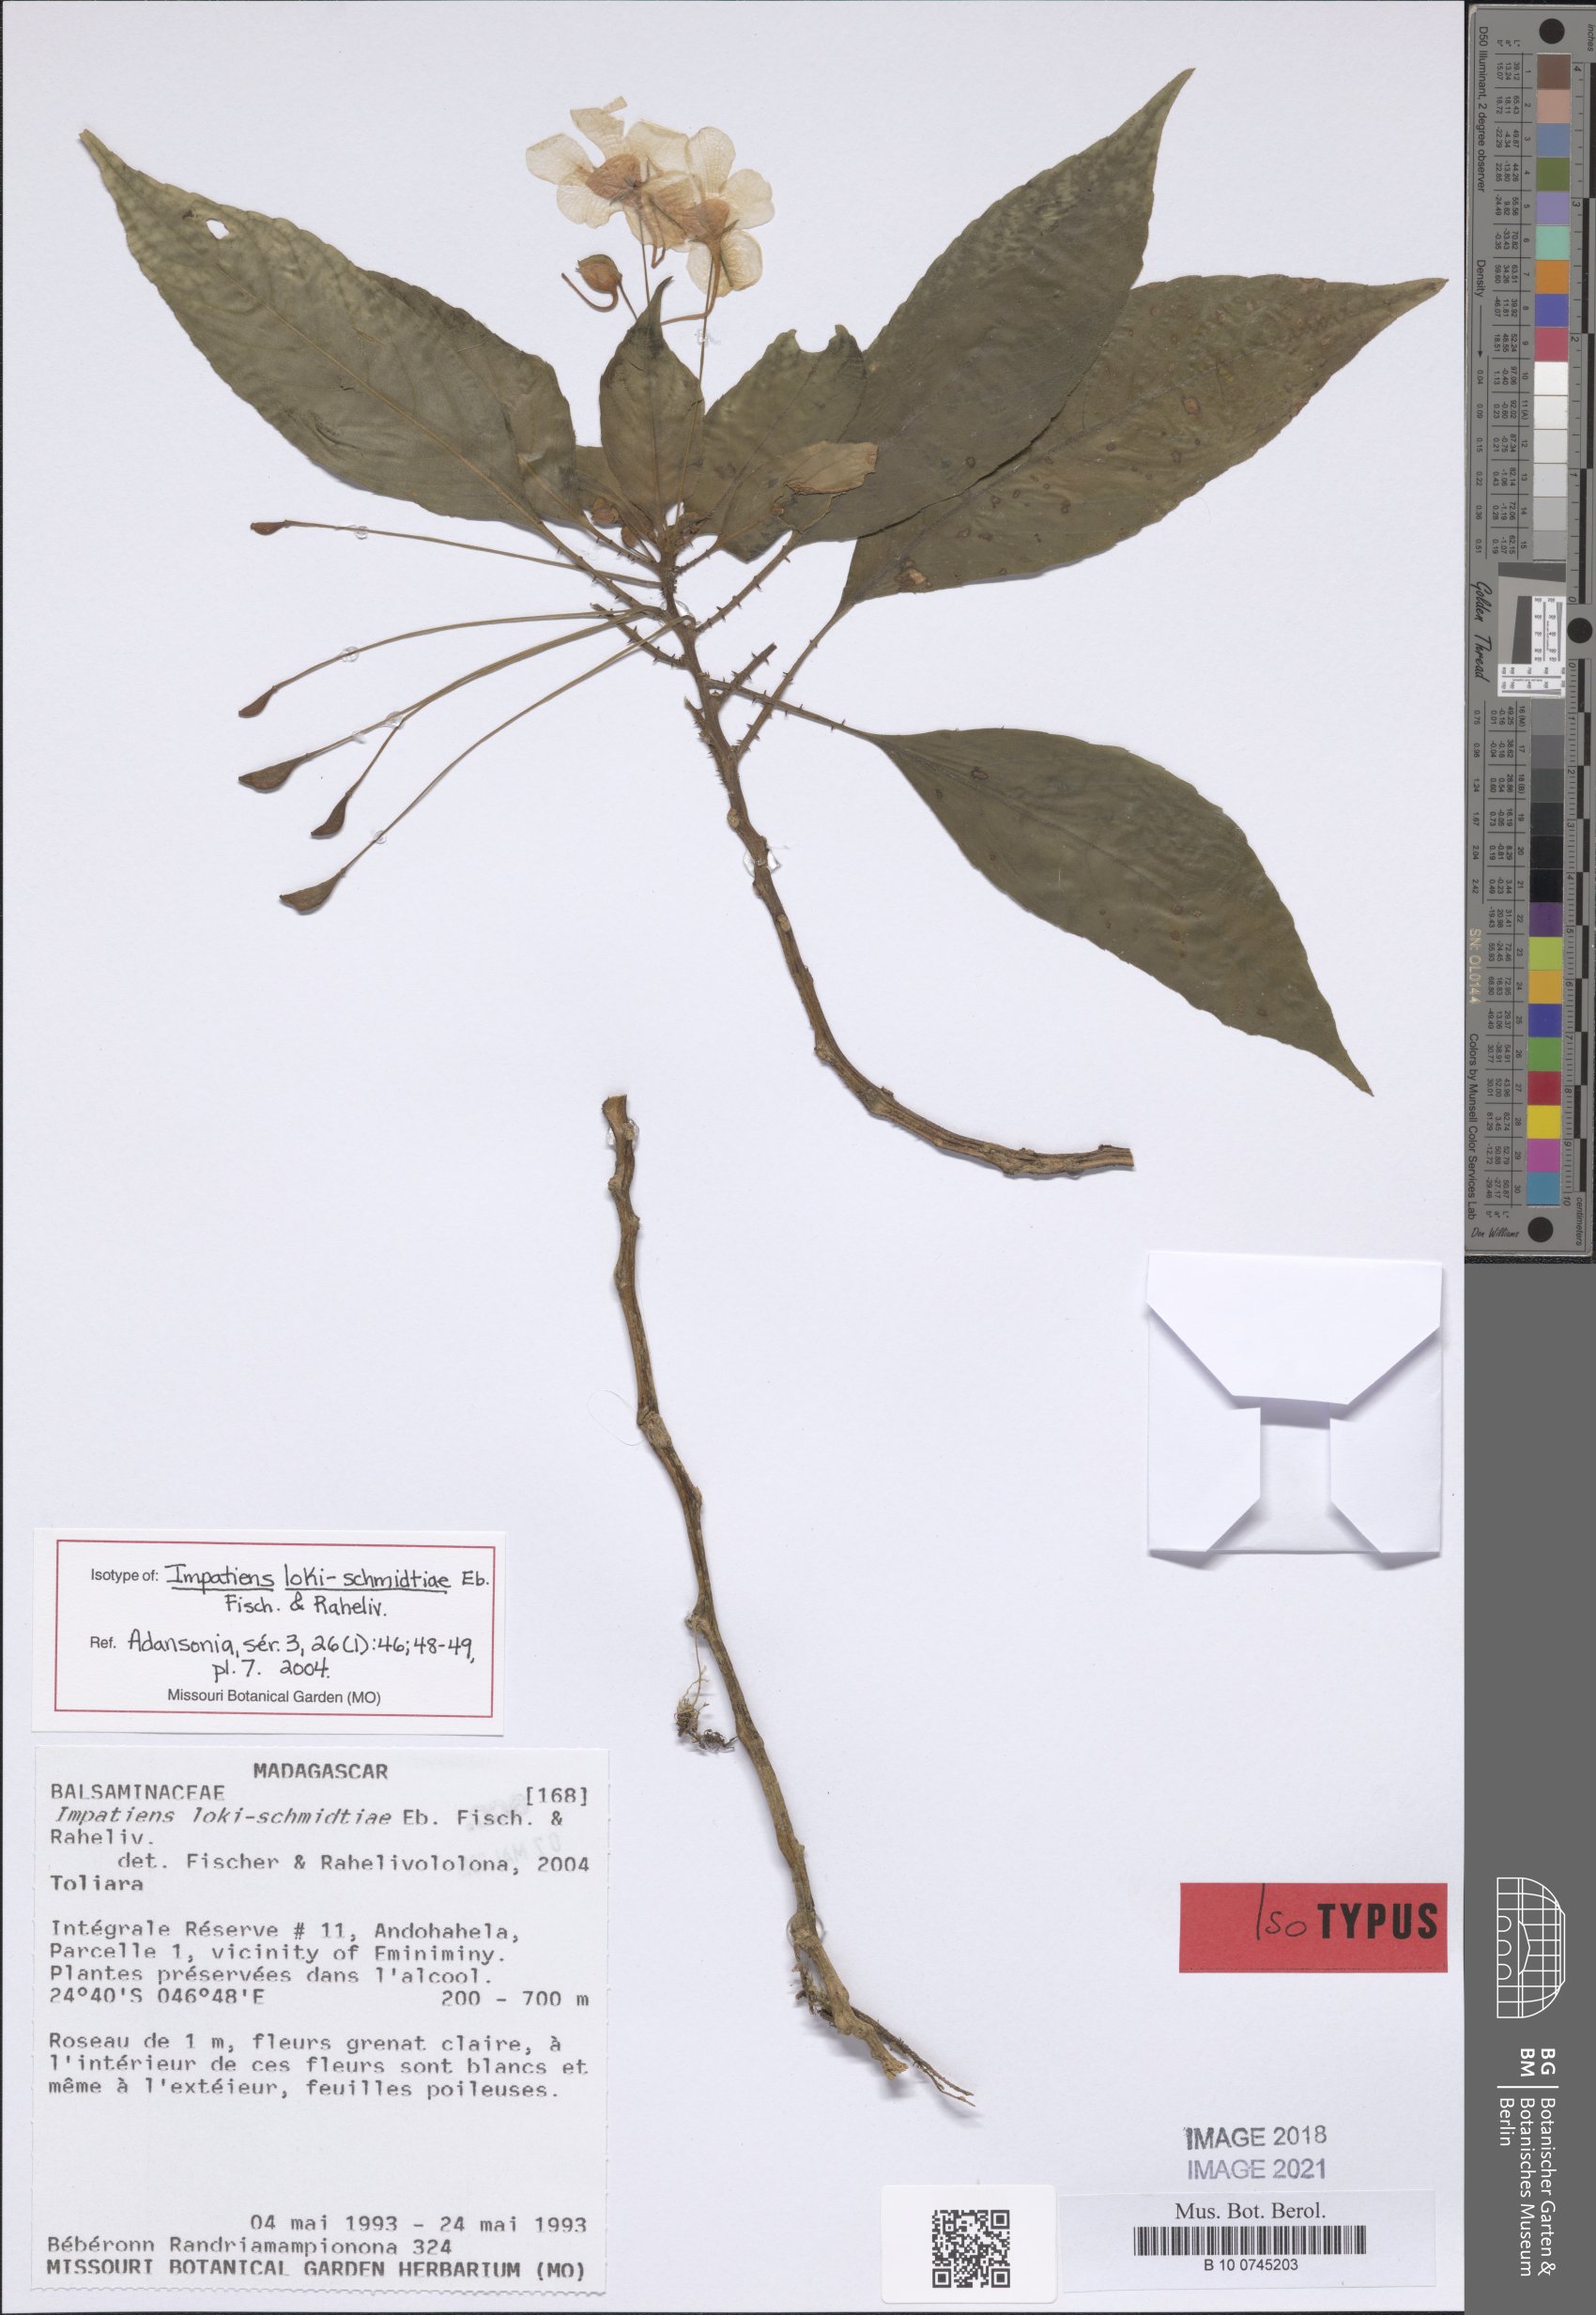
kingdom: Plantae
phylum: Tracheophyta
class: Magnoliopsida
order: Ericales
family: Balsaminaceae
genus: Impatiens
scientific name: Impatiens loki-schmidtiae
